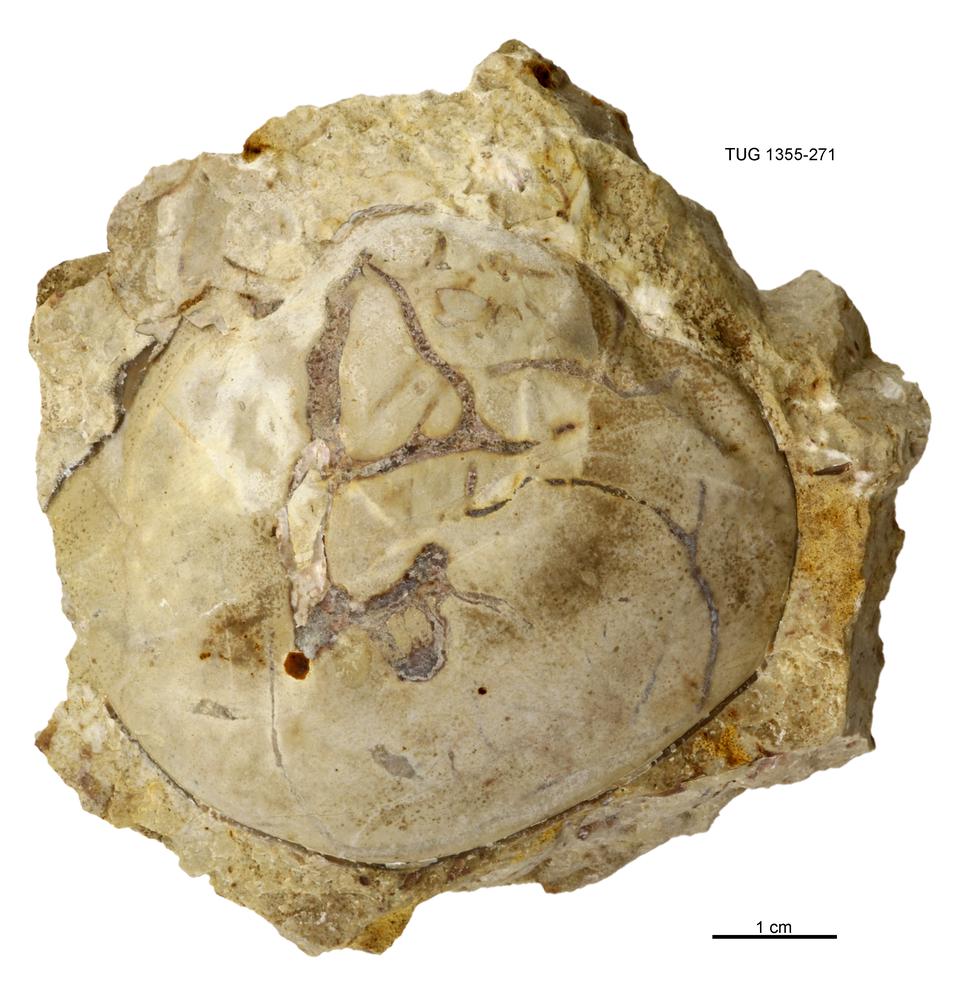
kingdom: Animalia
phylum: Arthropoda
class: Trilobita
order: Asaphida
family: Asaphidae
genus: Isotelus
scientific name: Isotelus
